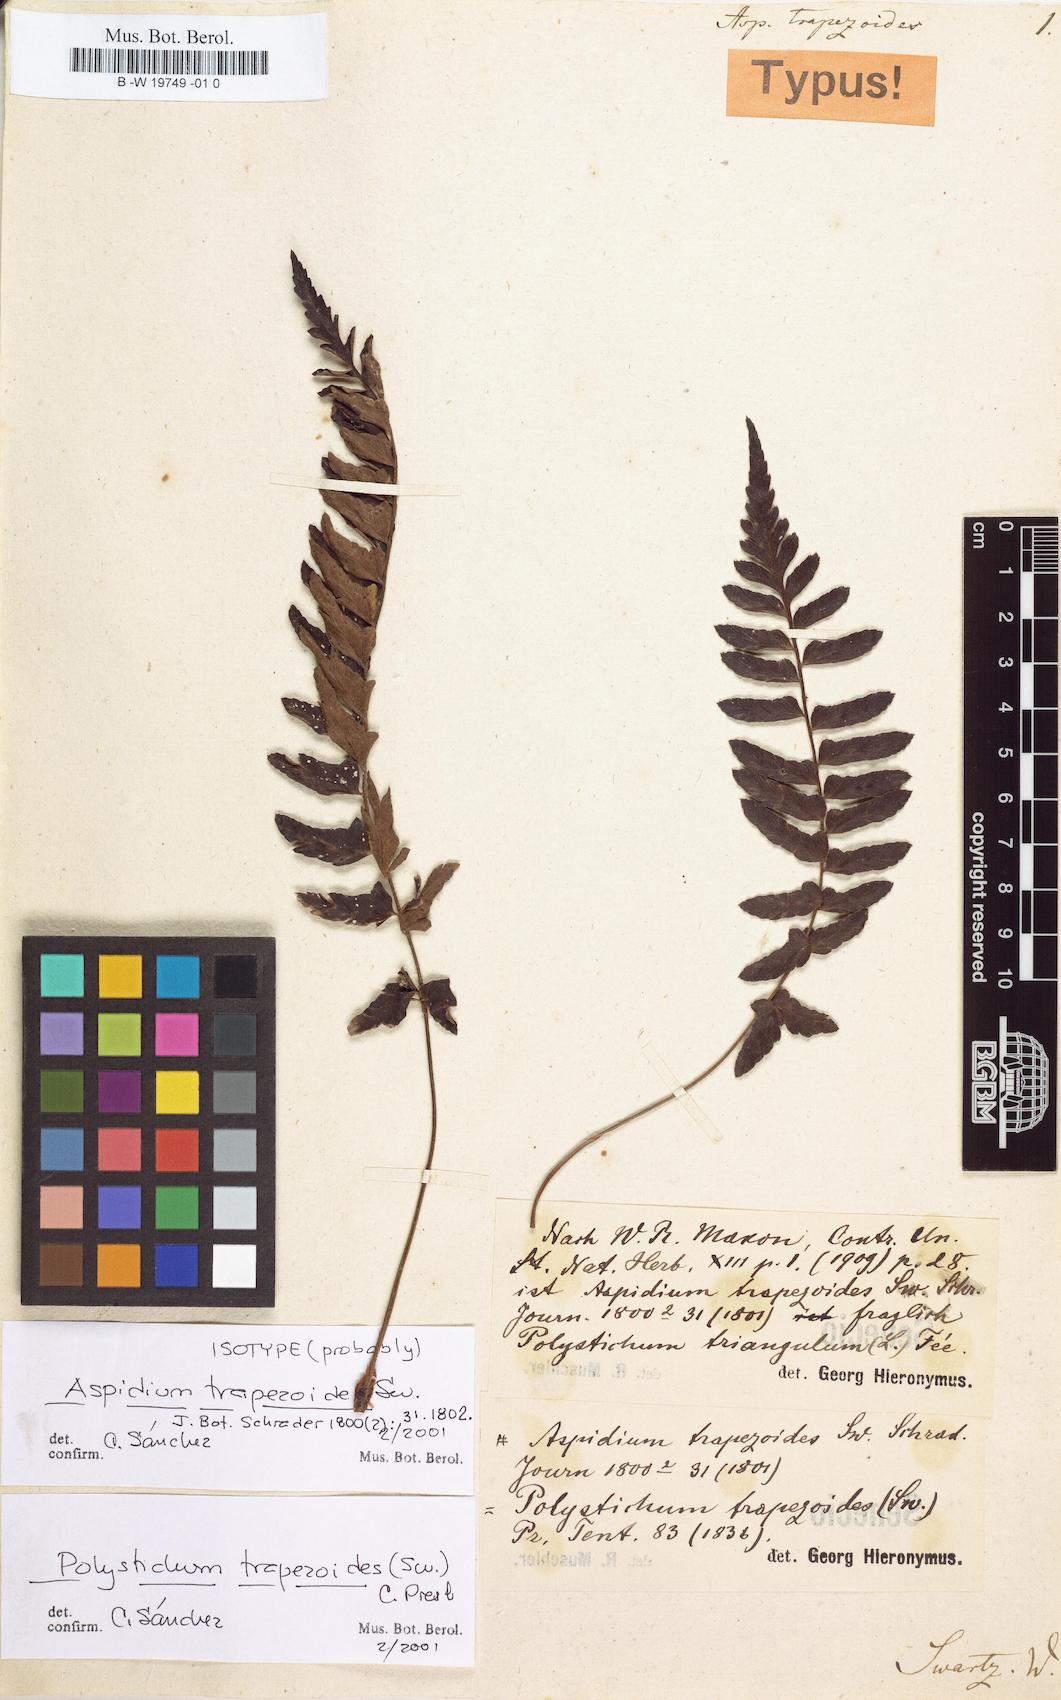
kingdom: Plantae
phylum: Tracheophyta
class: Polypodiopsida
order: Polypodiales
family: Dryopteridaceae
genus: Polystichum
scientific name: Polystichum echinatum
